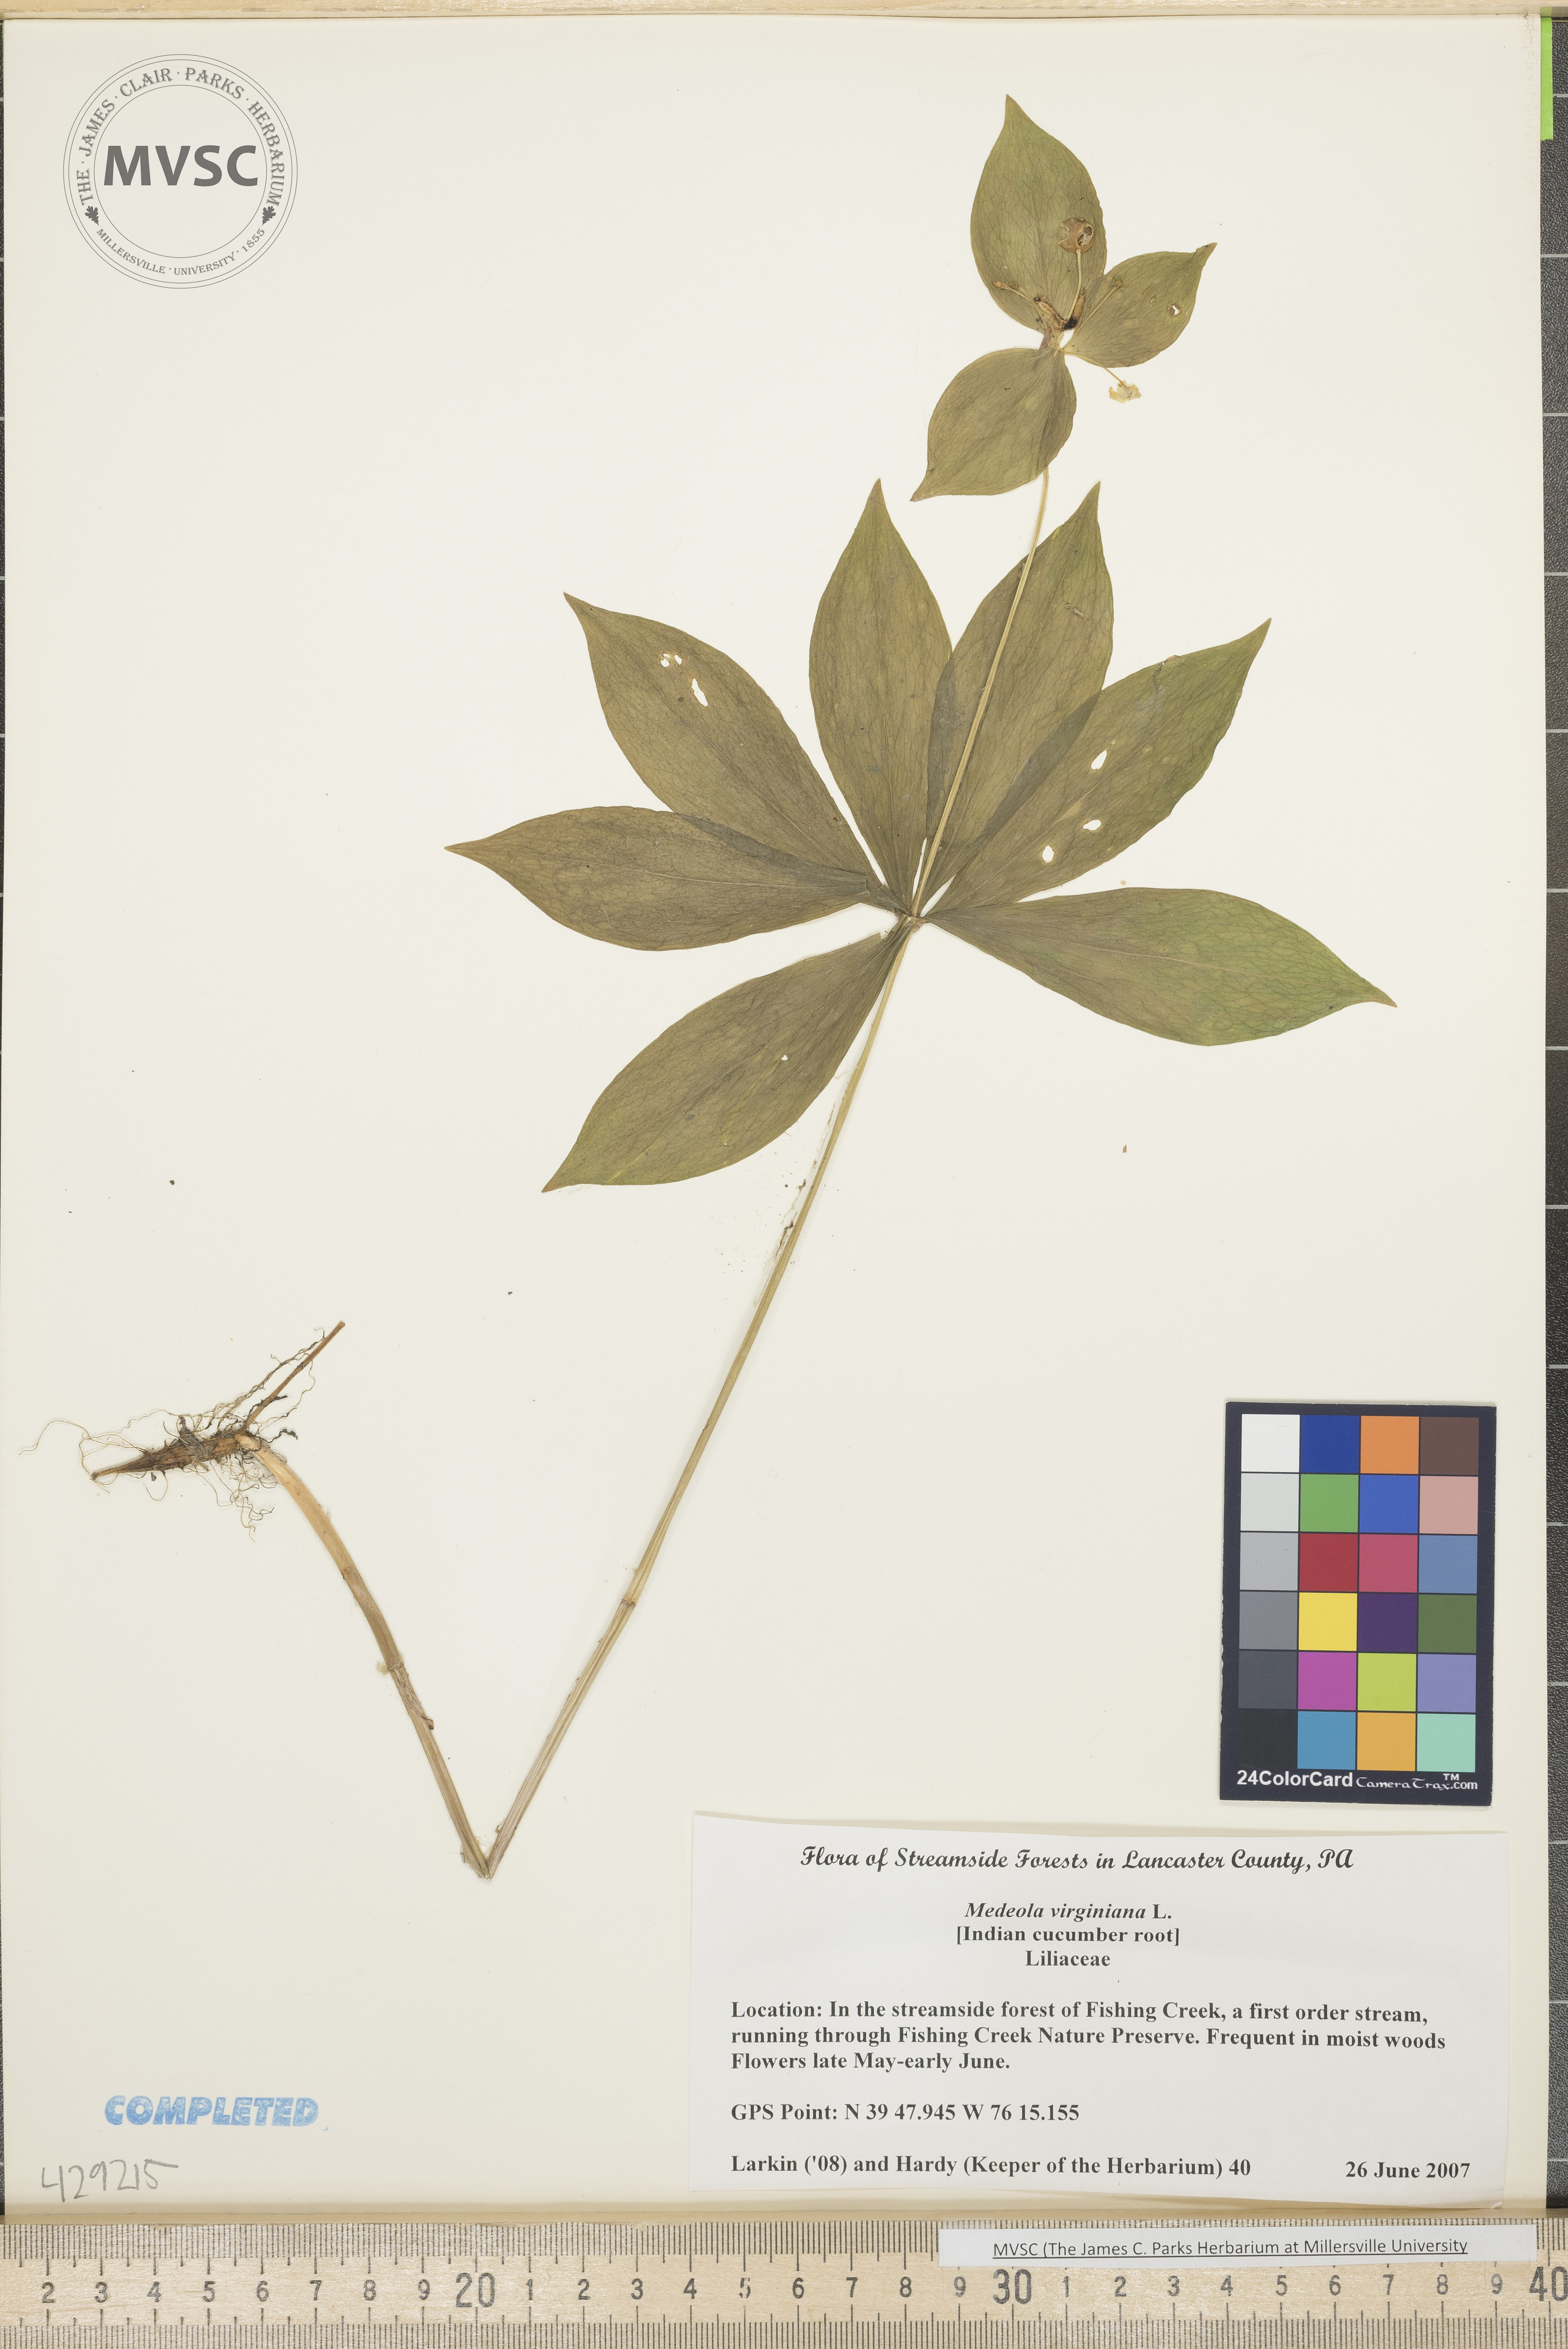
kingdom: Plantae
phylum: Tracheophyta
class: Liliopsida
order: Liliales
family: Liliaceae
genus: Medeola
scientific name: Medeola virginiana
